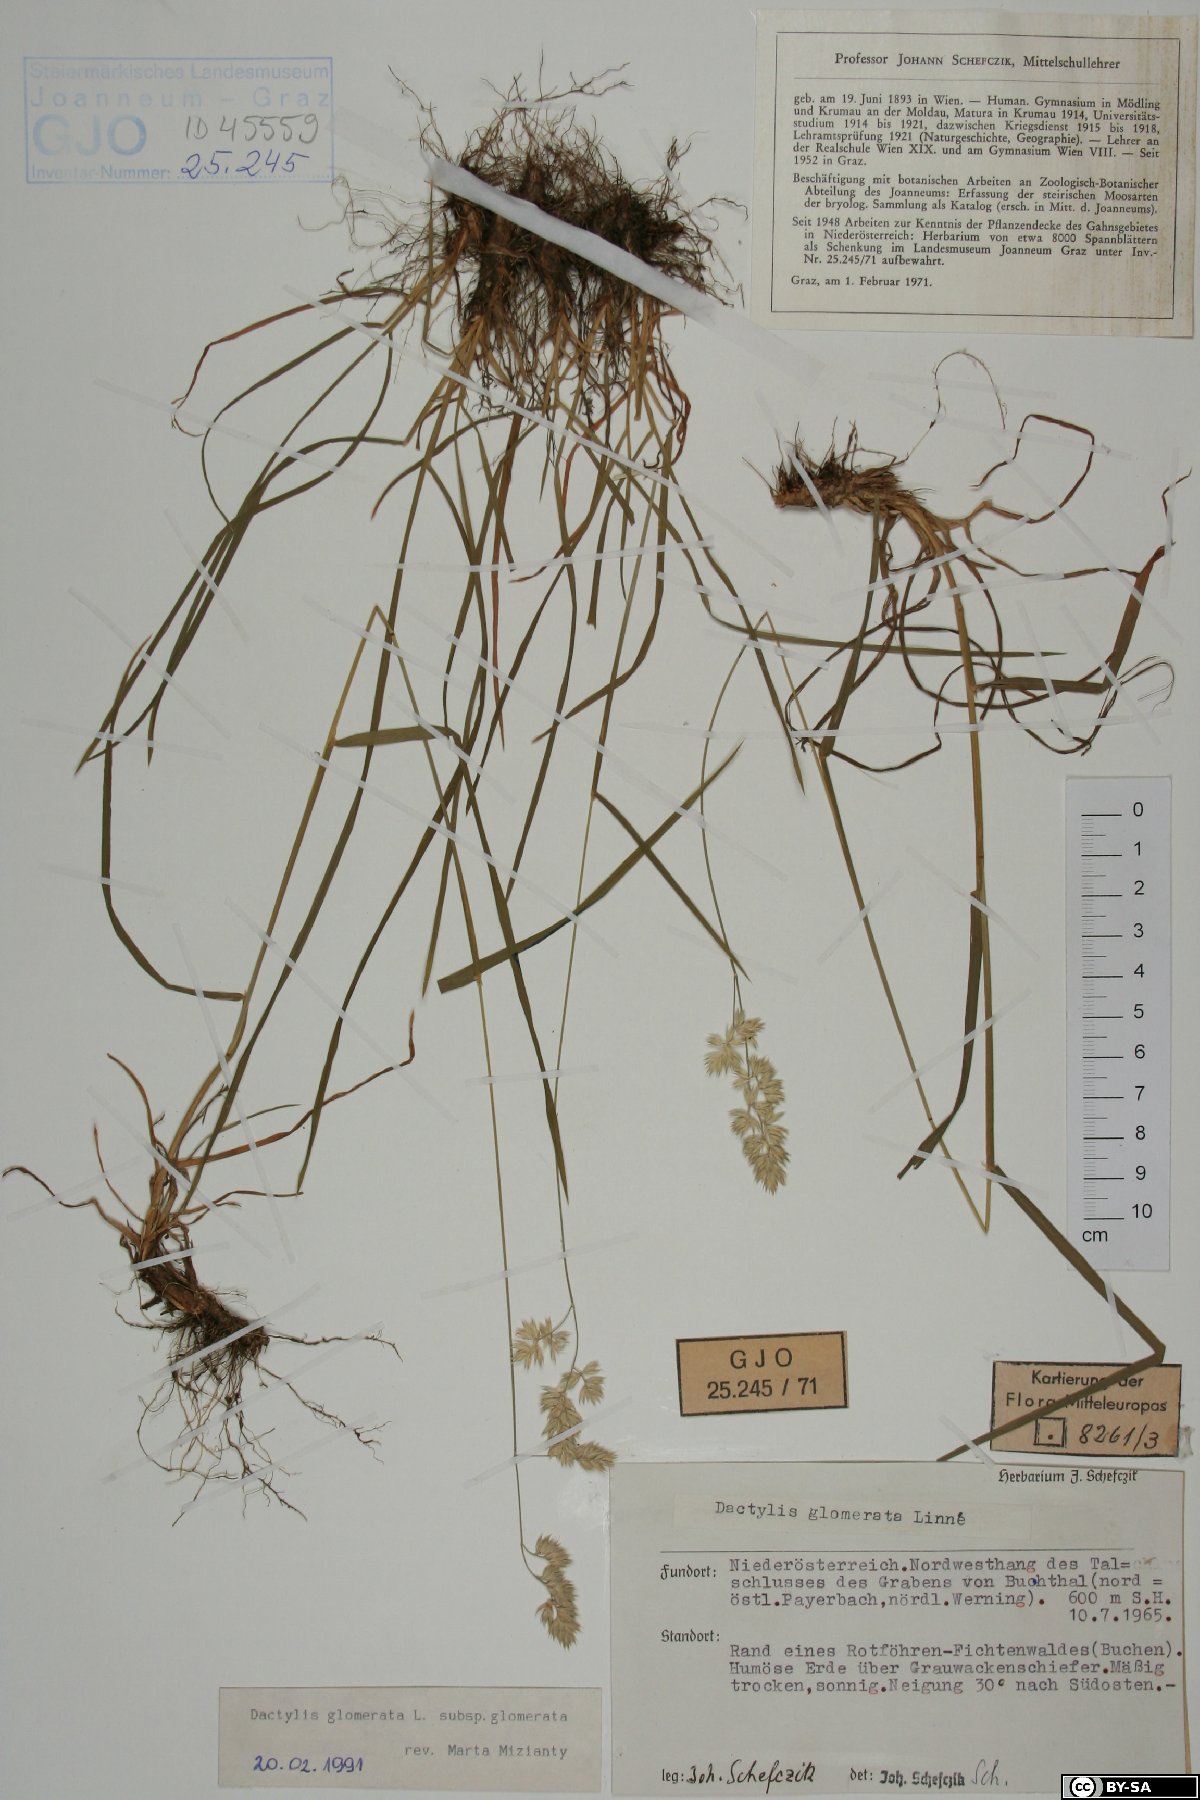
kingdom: Plantae
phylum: Tracheophyta
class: Liliopsida
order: Poales
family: Poaceae
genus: Dactylis
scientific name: Dactylis glomerata
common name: Orchardgrass
